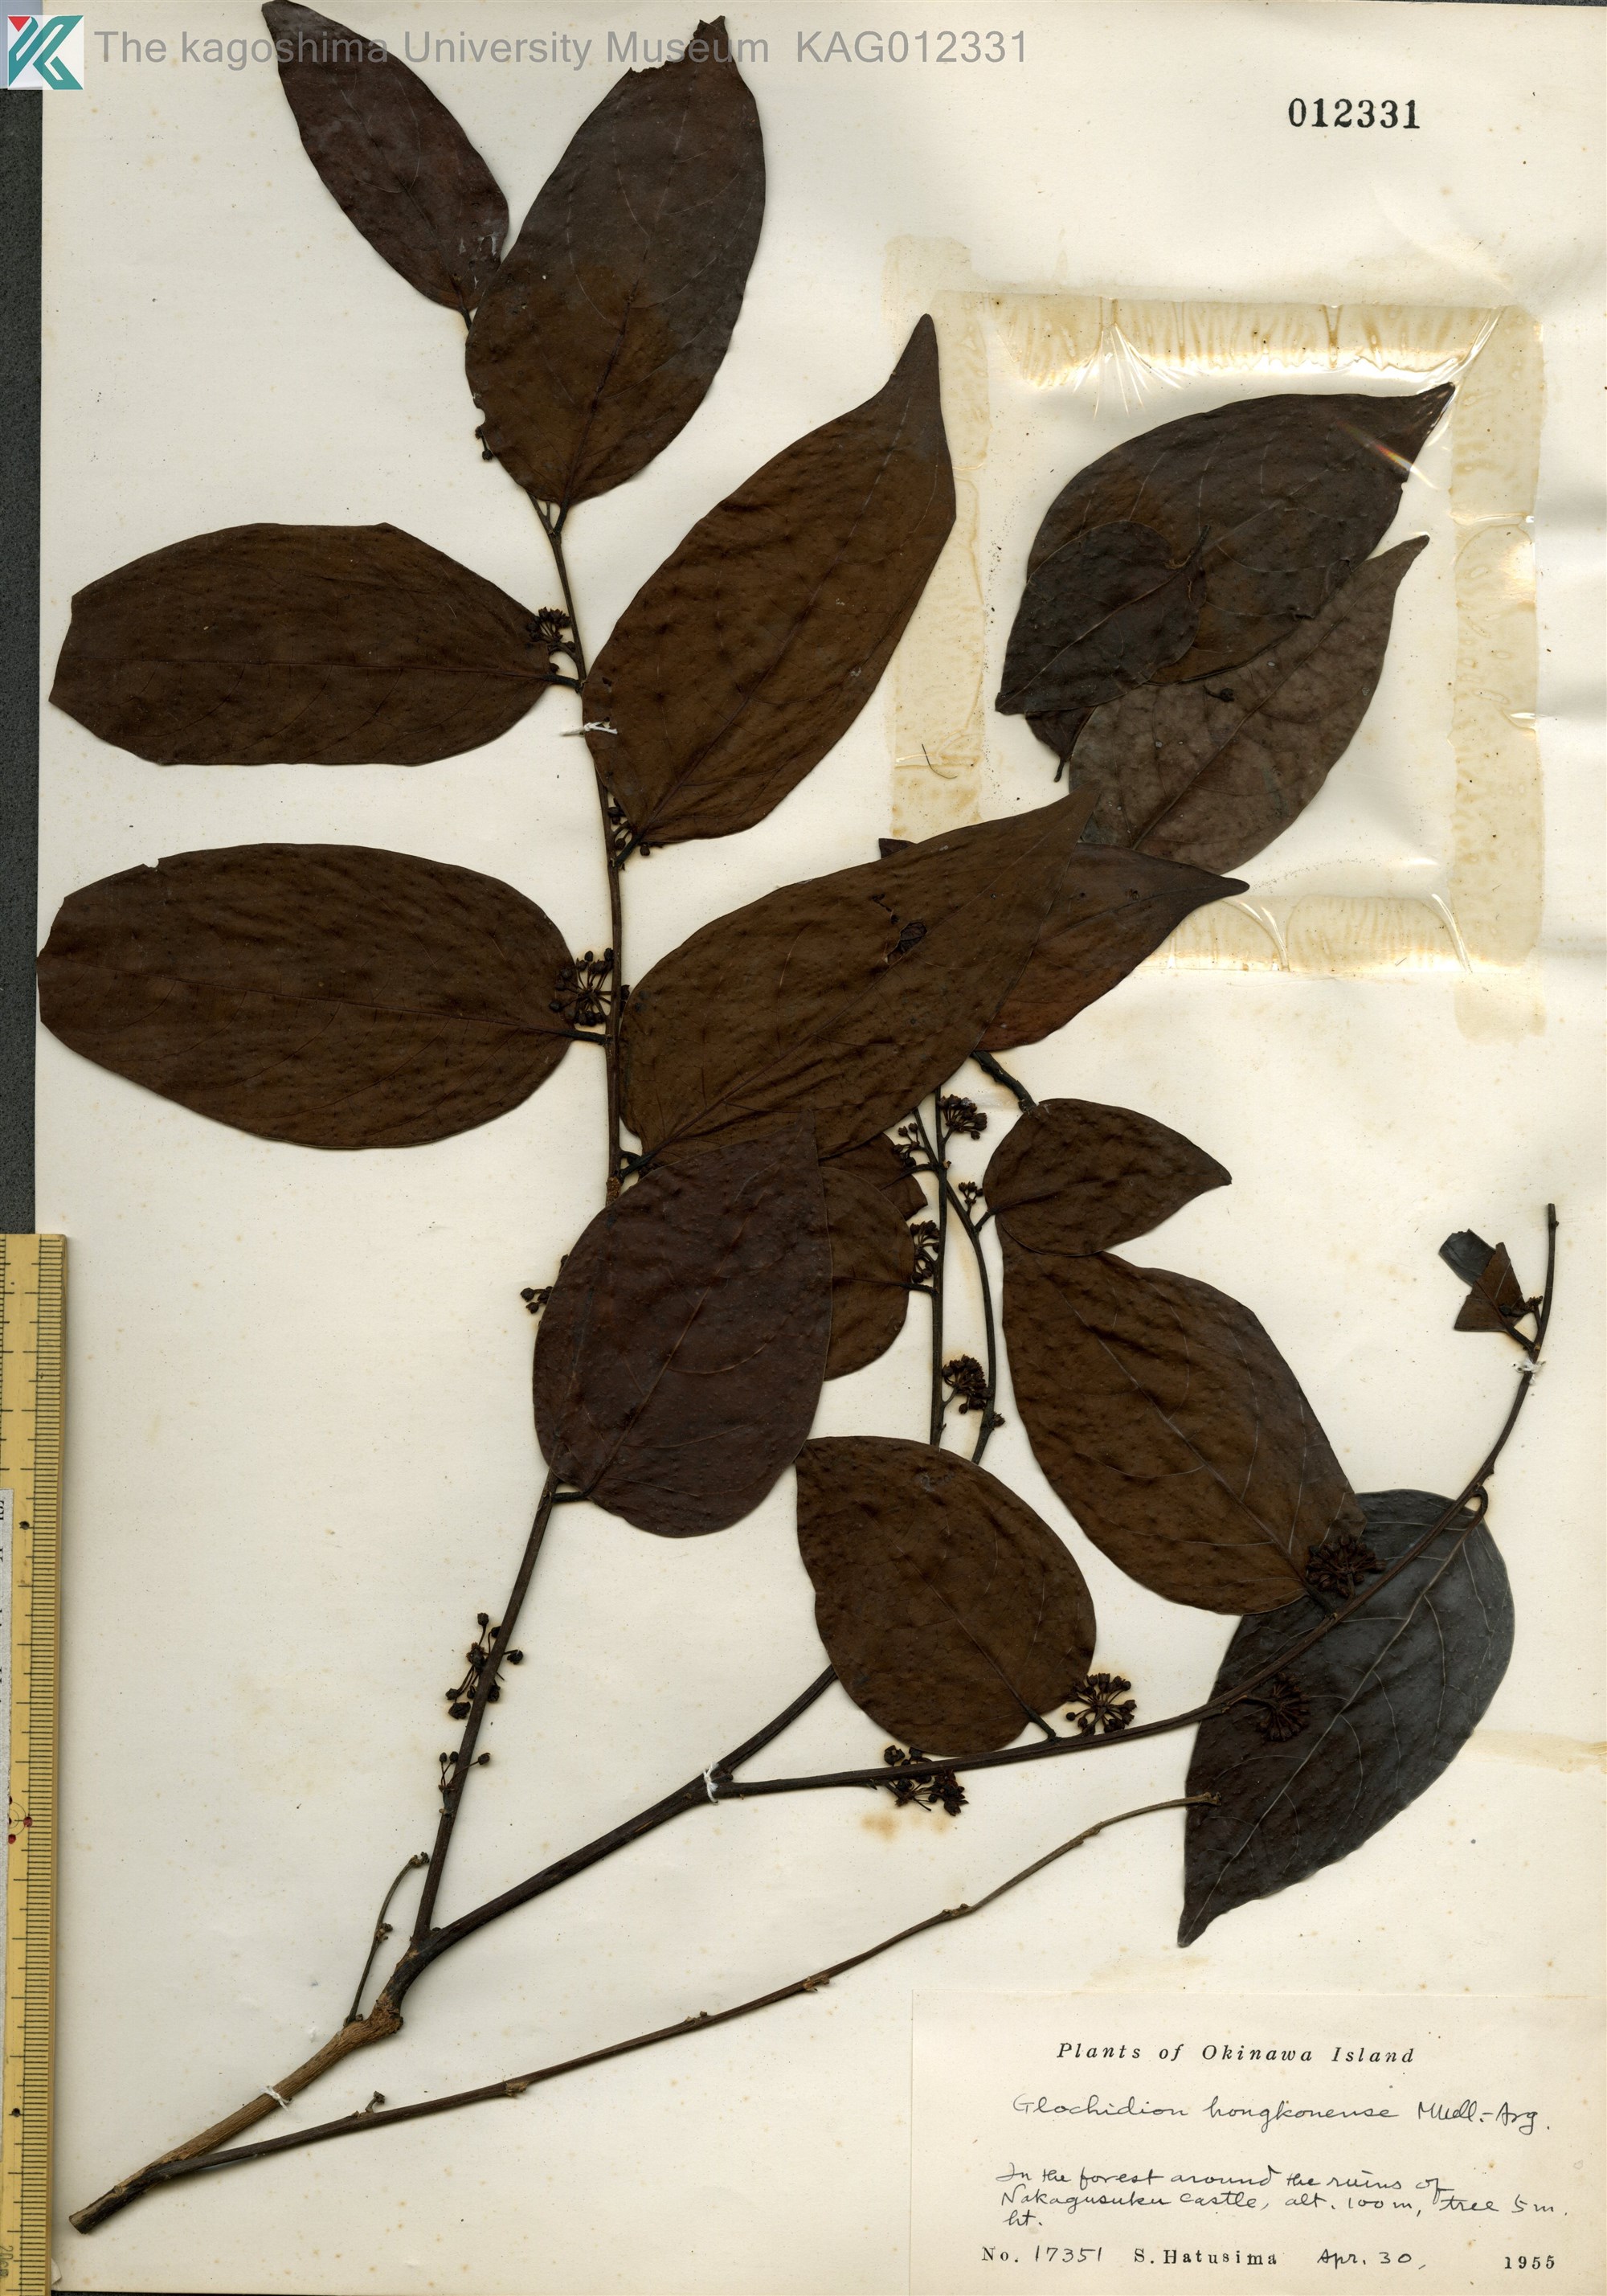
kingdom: Plantae
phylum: Tracheophyta
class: Magnoliopsida
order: Malpighiales
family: Phyllanthaceae
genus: Glochidion
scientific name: Glochidion lanceolatum
